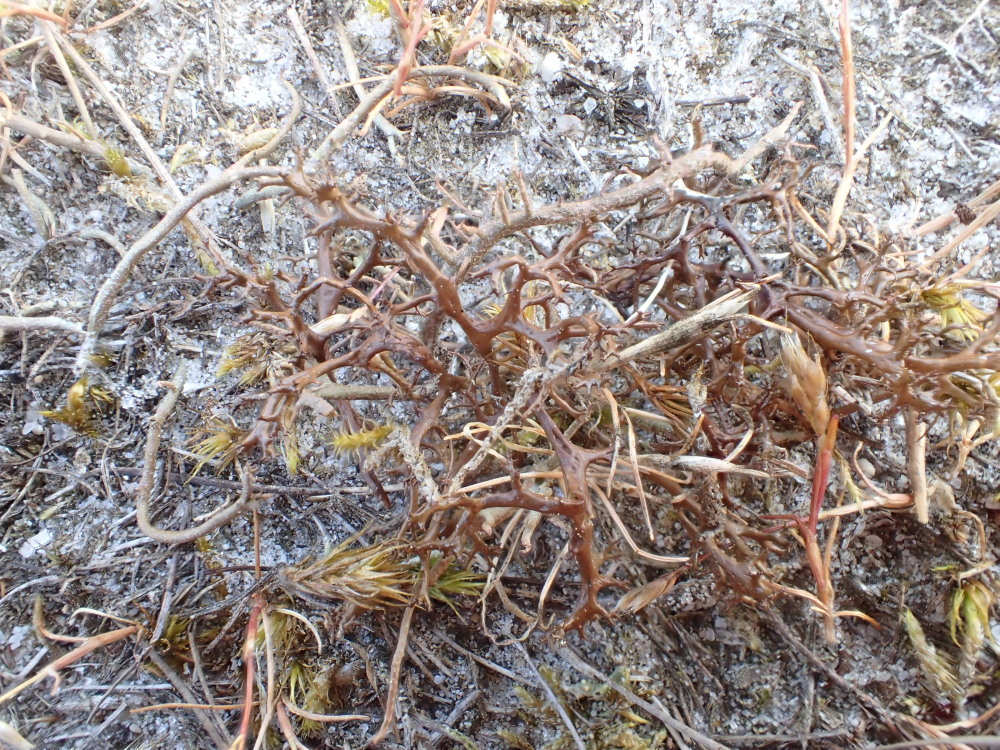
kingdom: Fungi
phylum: Ascomycota
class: Lecanoromycetes
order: Lecanorales
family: Parmeliaceae
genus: Cetraria
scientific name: Cetraria aculeata
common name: grubet tjørnelav
